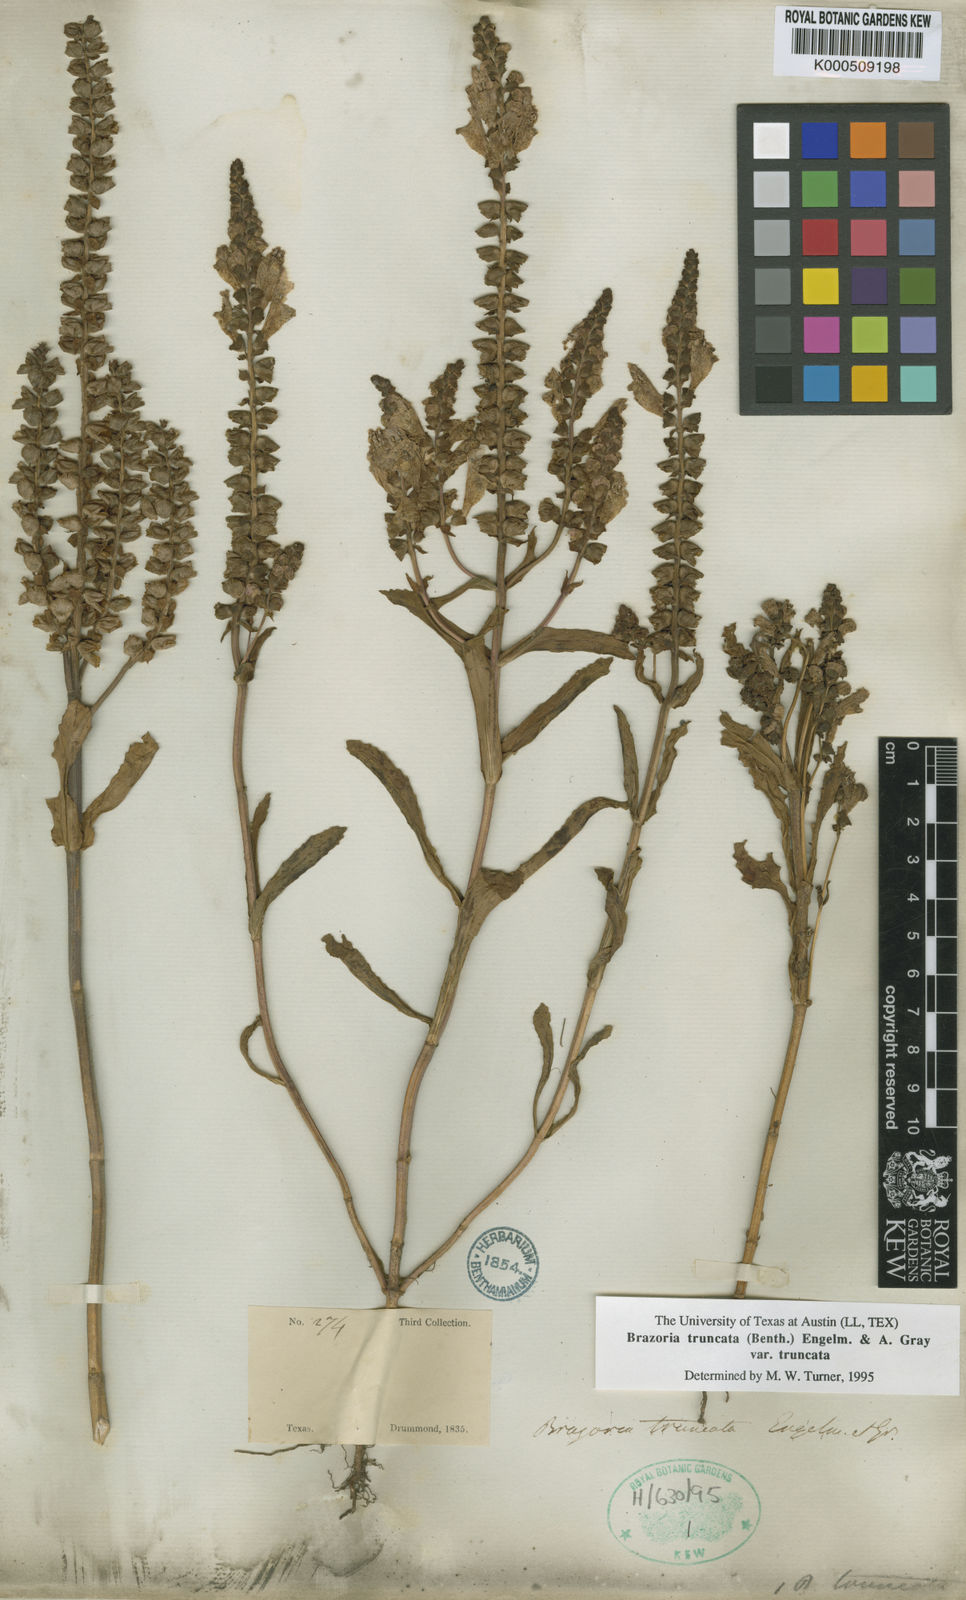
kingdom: Plantae
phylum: Tracheophyta
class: Magnoliopsida
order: Lamiales
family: Lamiaceae
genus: Brazoria
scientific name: Brazoria truncata
